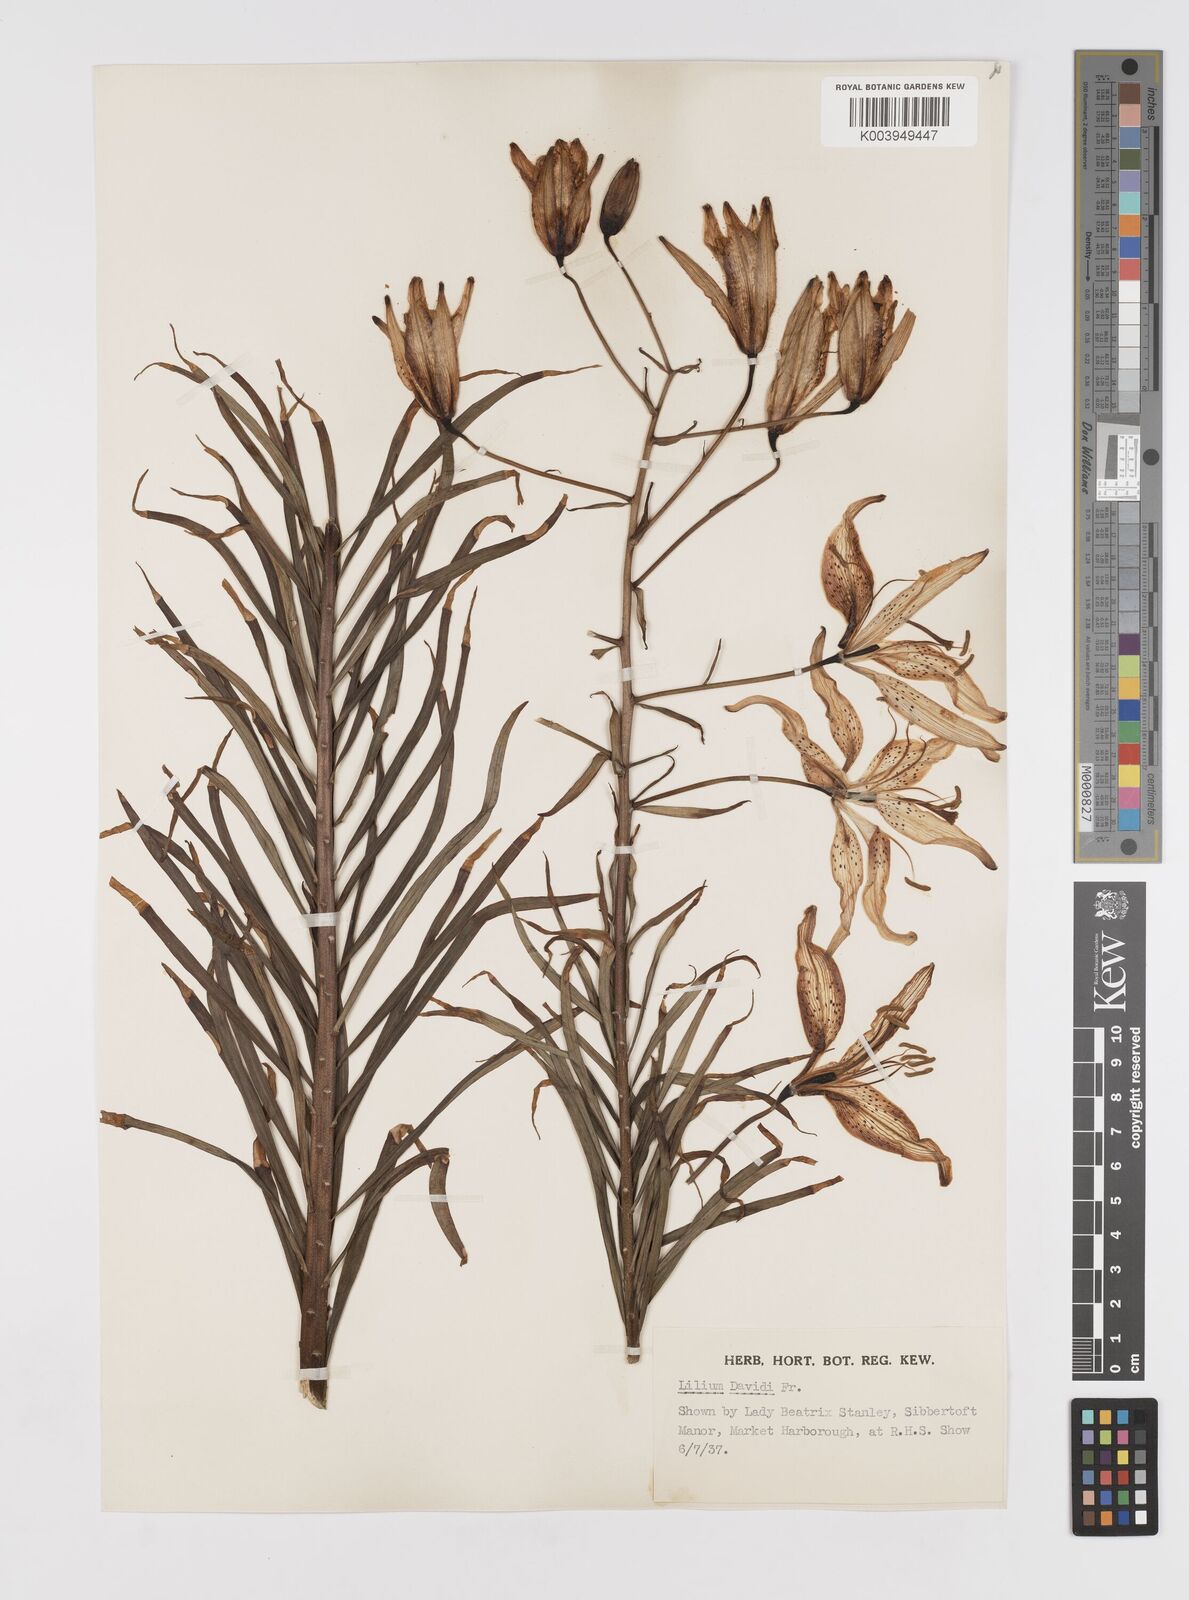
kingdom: Plantae
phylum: Tracheophyta
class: Liliopsida
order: Liliales
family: Liliaceae
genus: Lilium
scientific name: Lilium davidii
